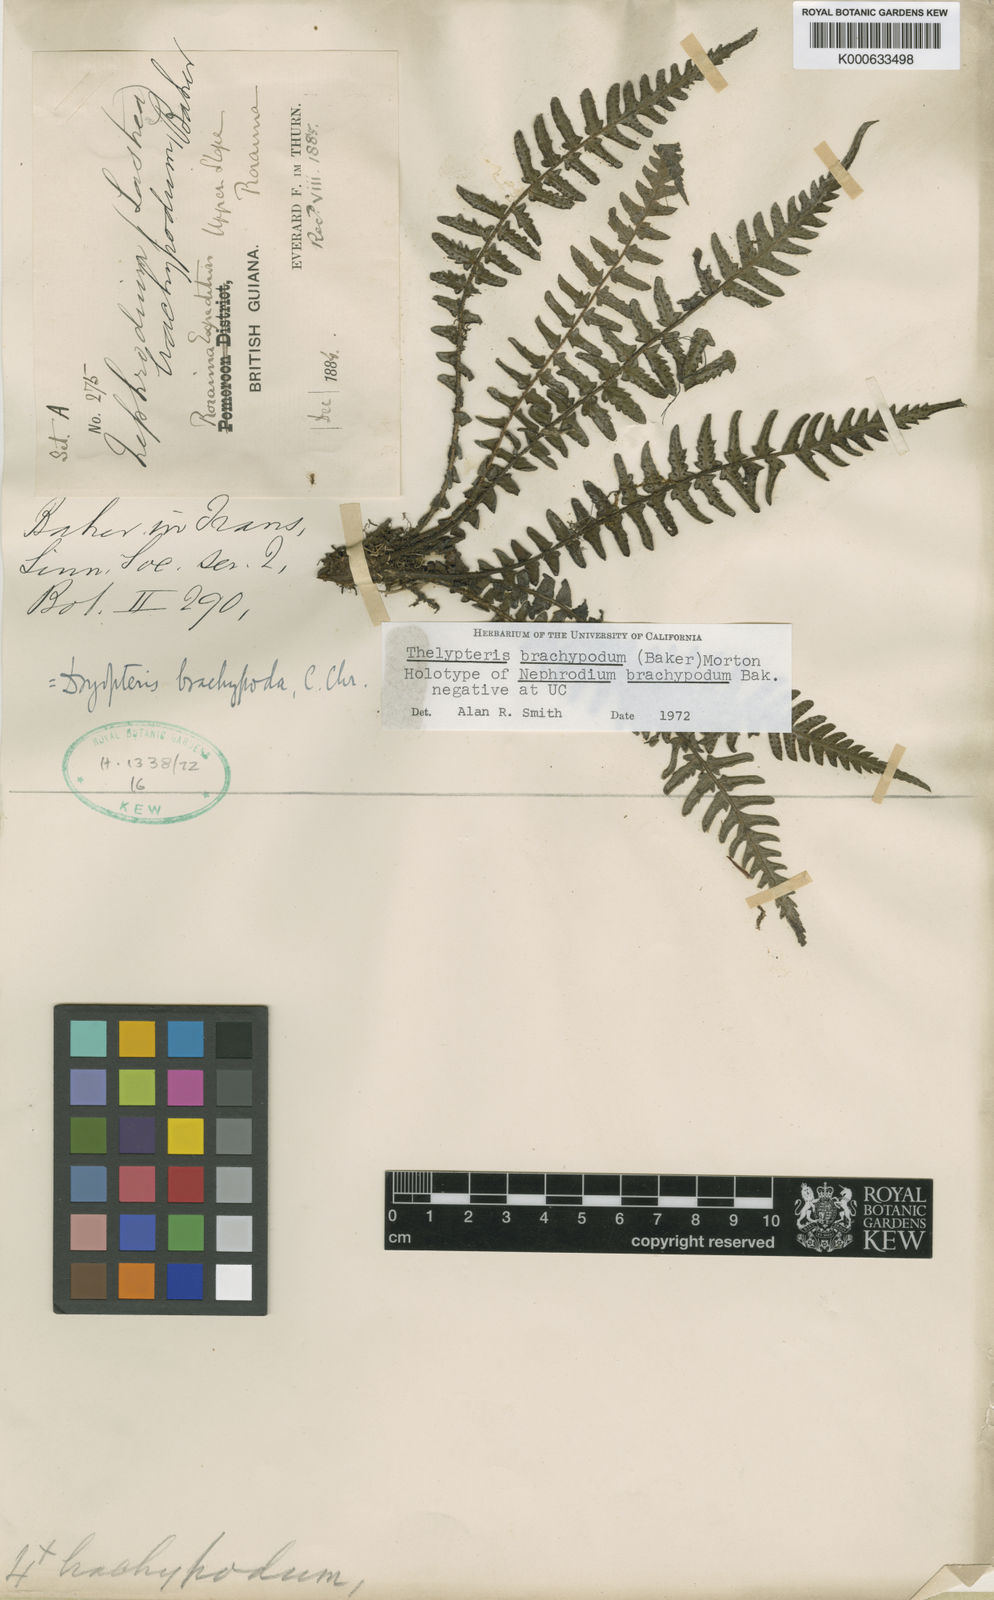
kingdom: Plantae
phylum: Tracheophyta
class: Polypodiopsida
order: Polypodiales
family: Thelypteridaceae
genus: Amauropelta
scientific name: Amauropelta
